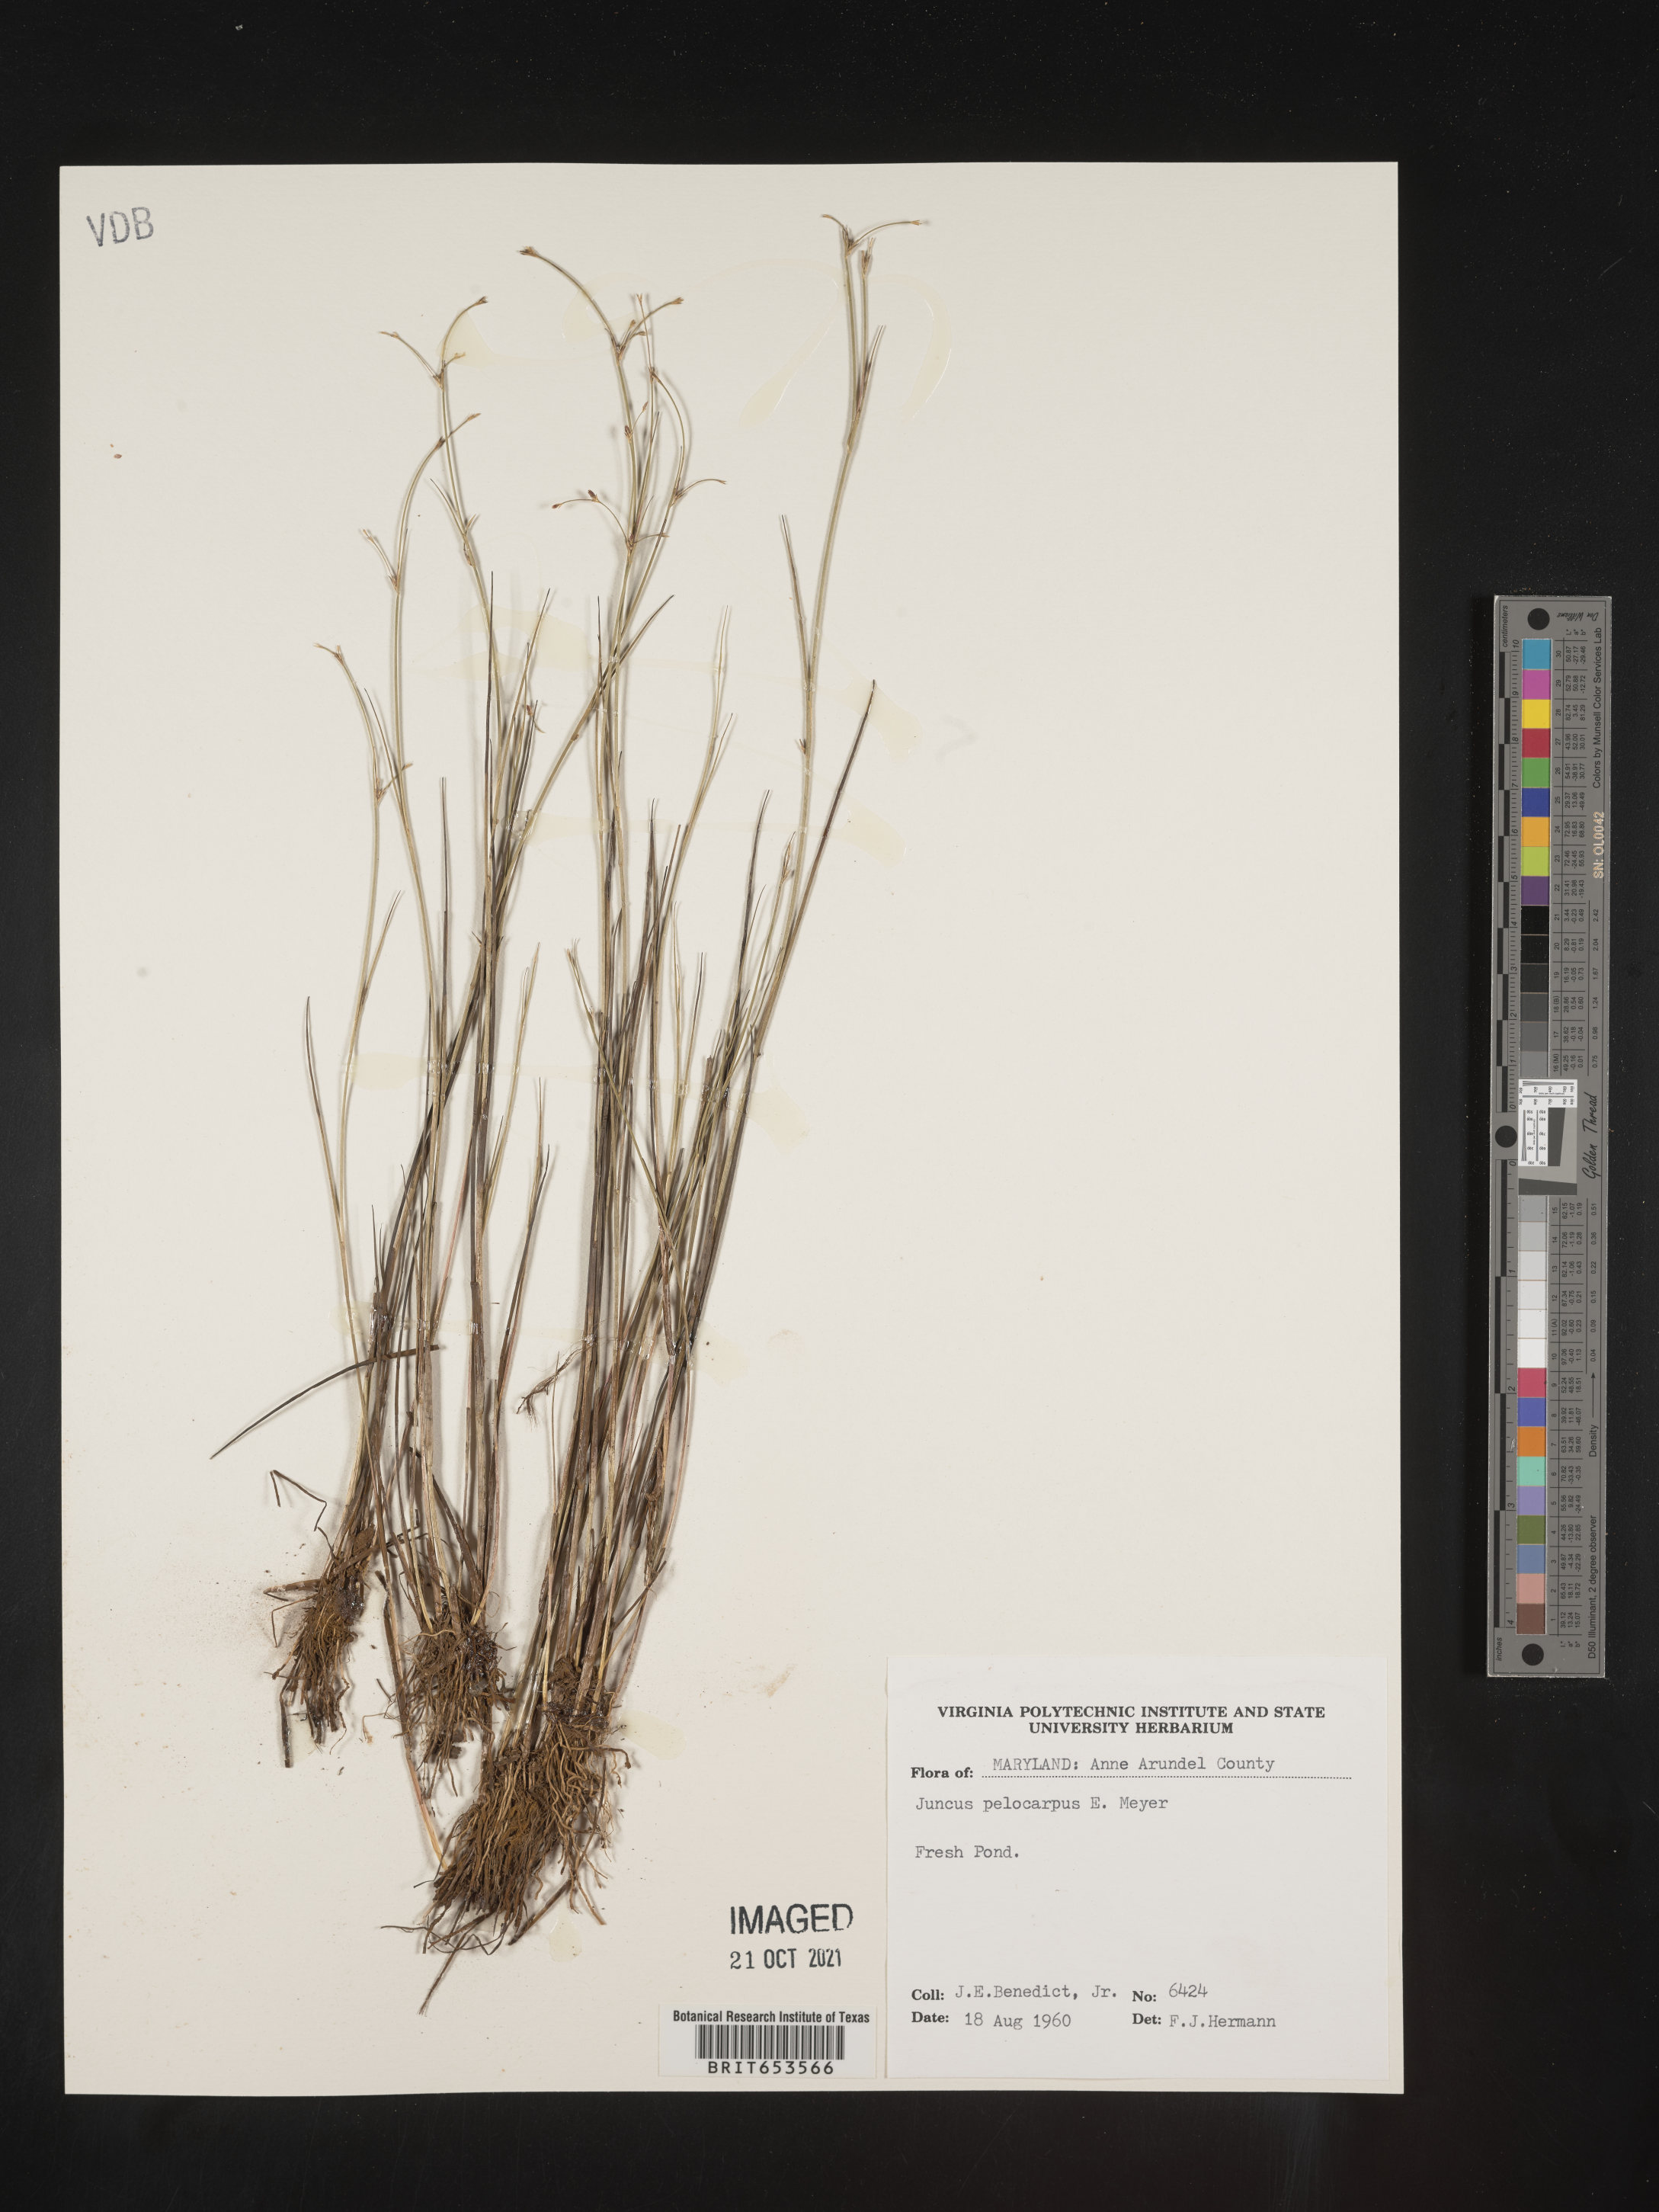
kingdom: Plantae
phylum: Tracheophyta
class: Liliopsida
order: Poales
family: Juncaceae
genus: Juncus
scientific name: Juncus pelocarpus
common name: Brown-fruited rush
